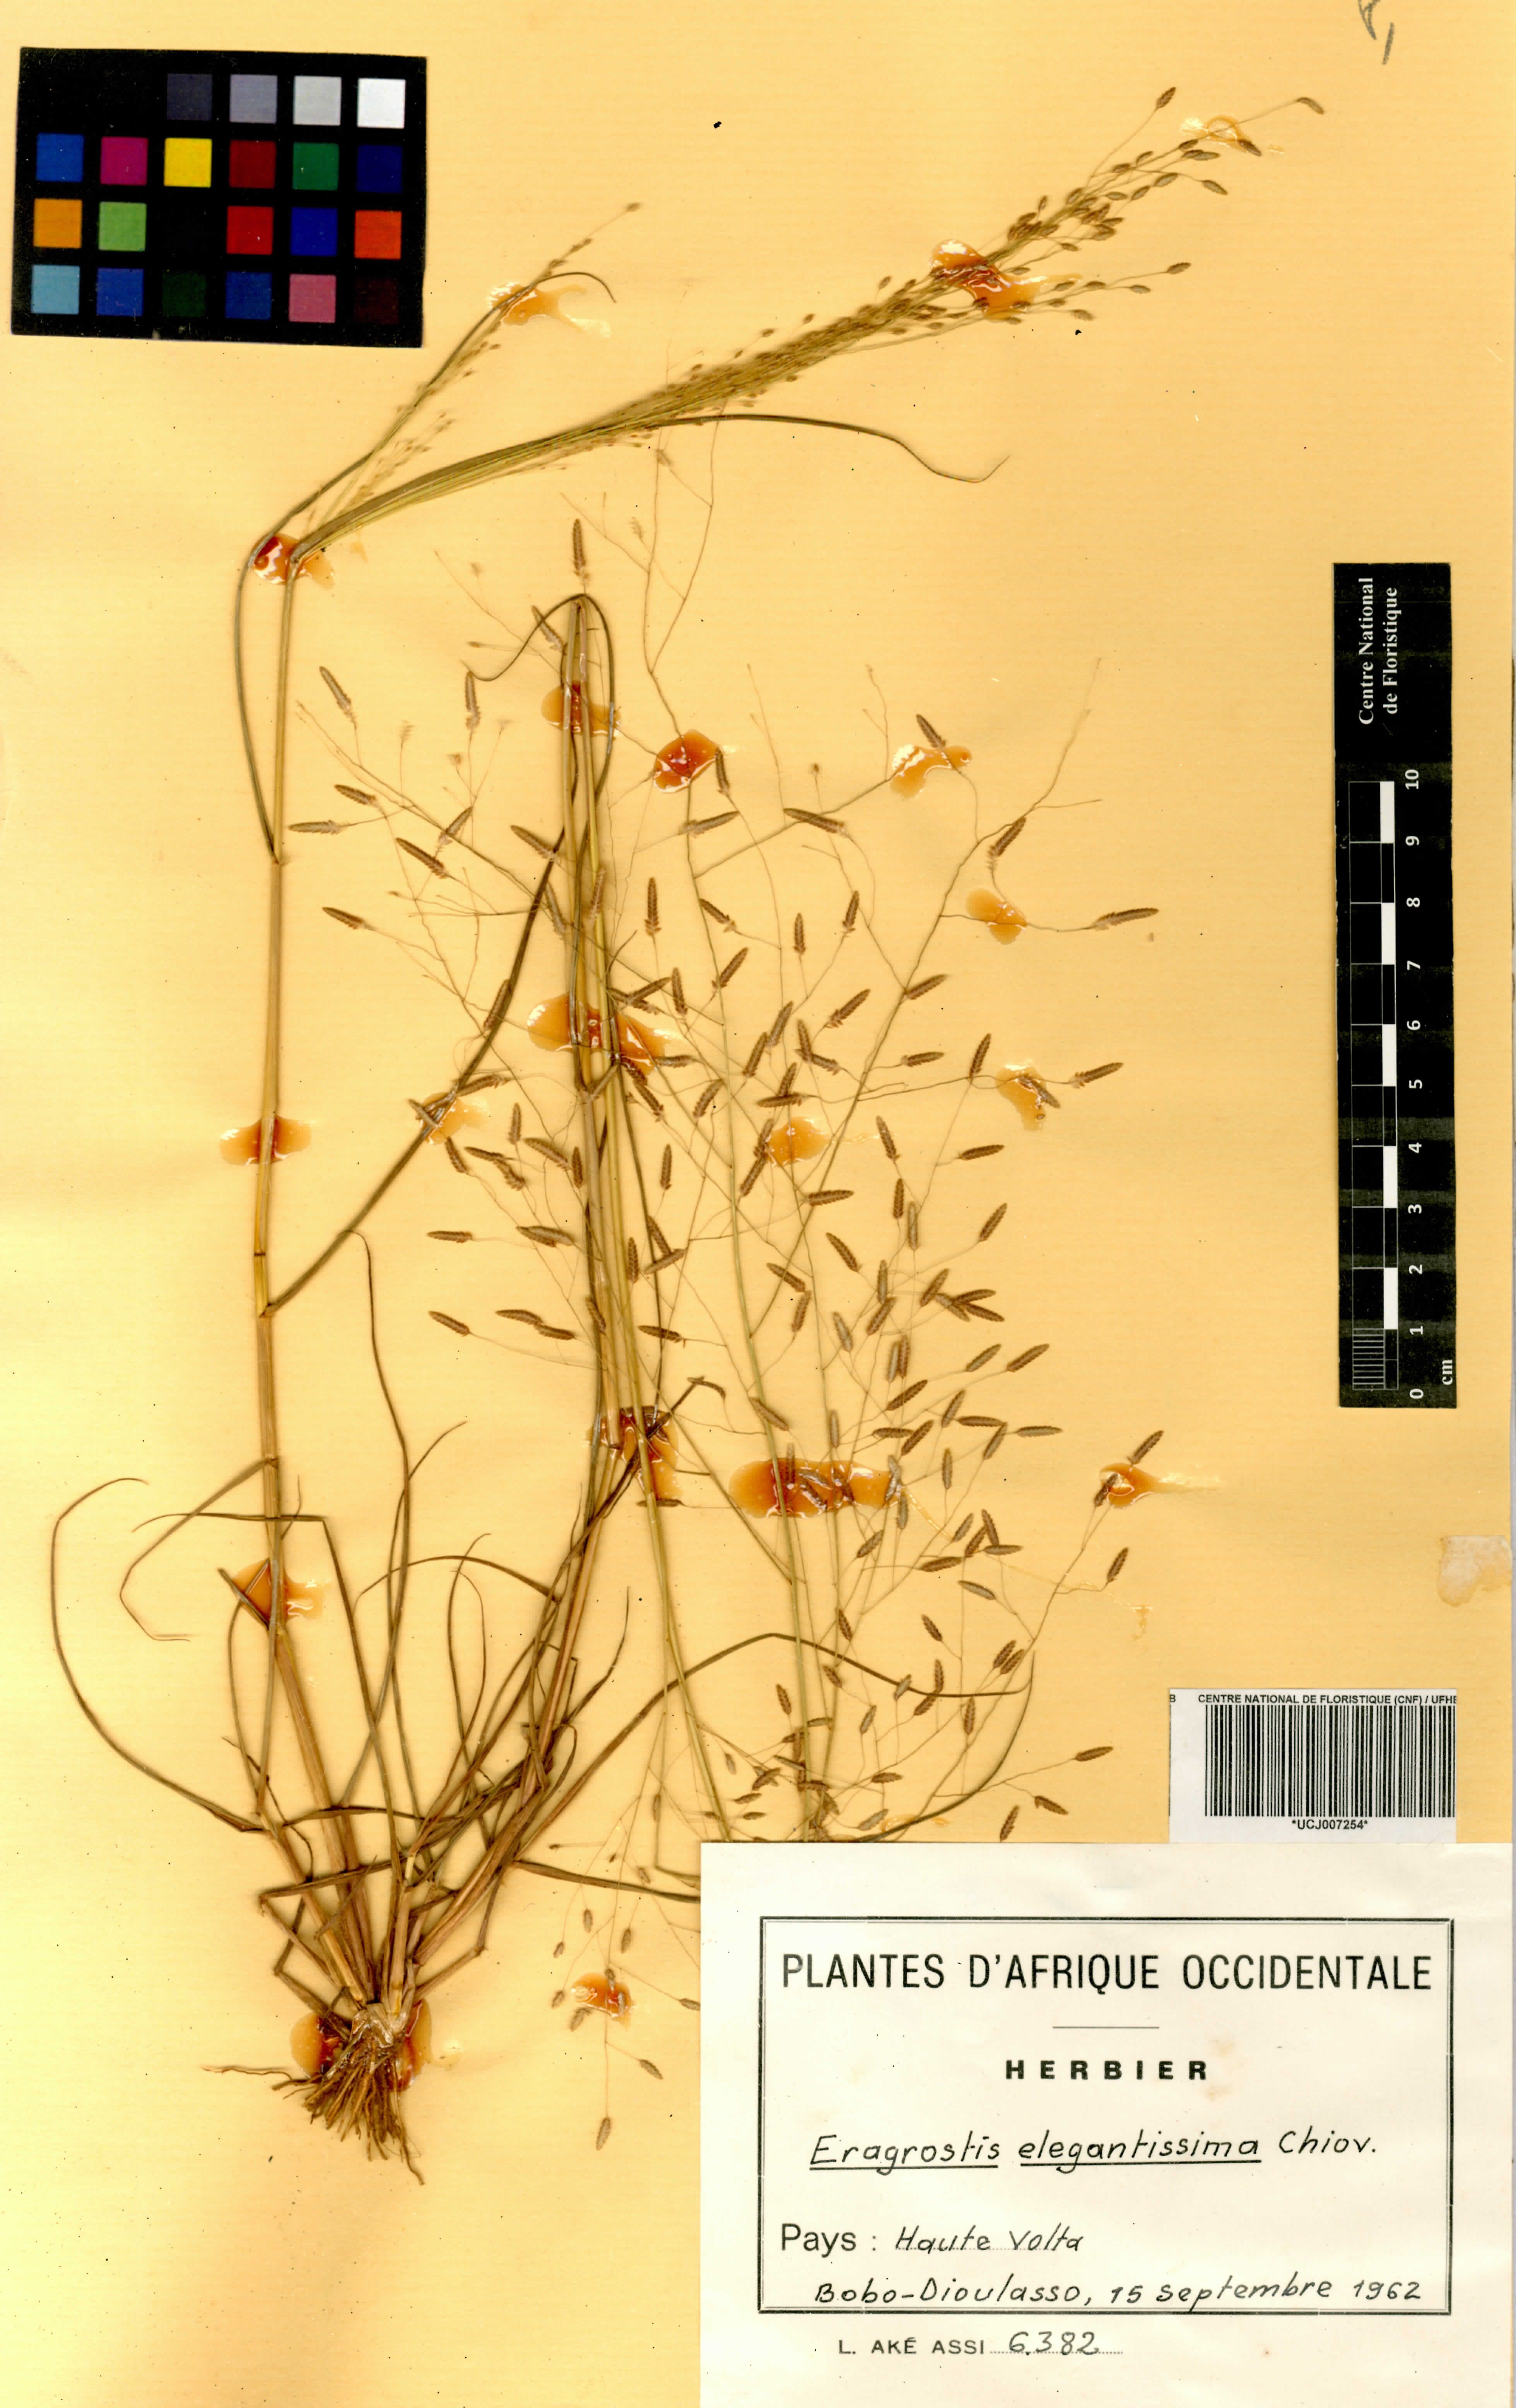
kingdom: Plantae
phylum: Tracheophyta
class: Liliopsida
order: Poales
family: Poaceae
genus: Eragrostis
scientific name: Eragrostis elegantissima
